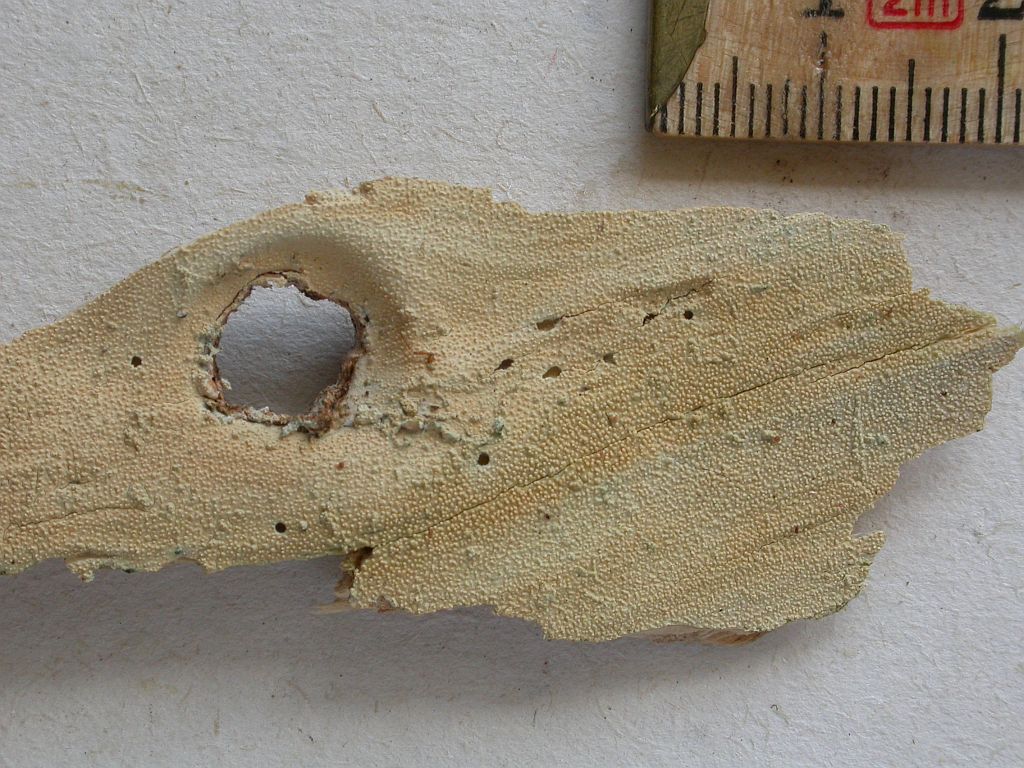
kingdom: Fungi
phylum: Basidiomycota
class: Agaricomycetes
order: Hymenochaetales
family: Repetobasidiaceae
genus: Skvortzovia
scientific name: Skvortzovia furfuracea
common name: tynd vokstand
